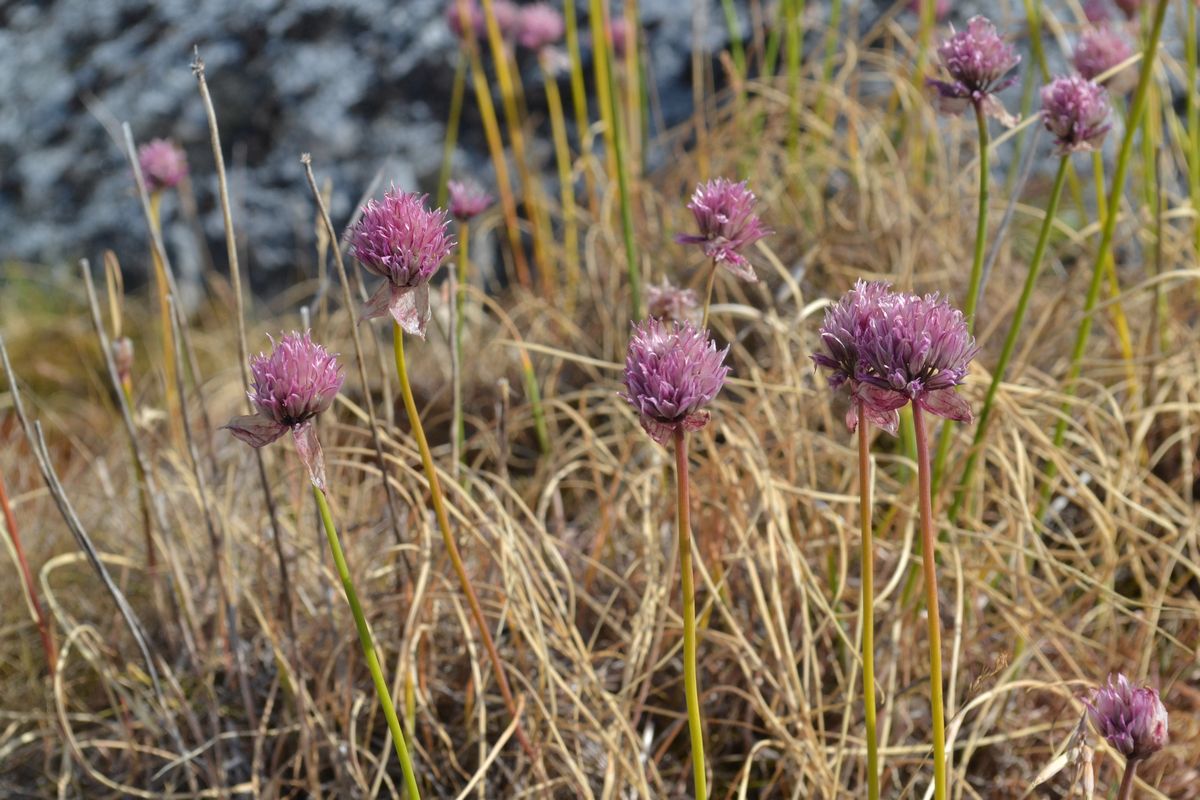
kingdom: Plantae
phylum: Tracheophyta
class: Liliopsida
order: Asparagales
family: Amaryllidaceae
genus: Allium
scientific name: Allium schoenoprasum
